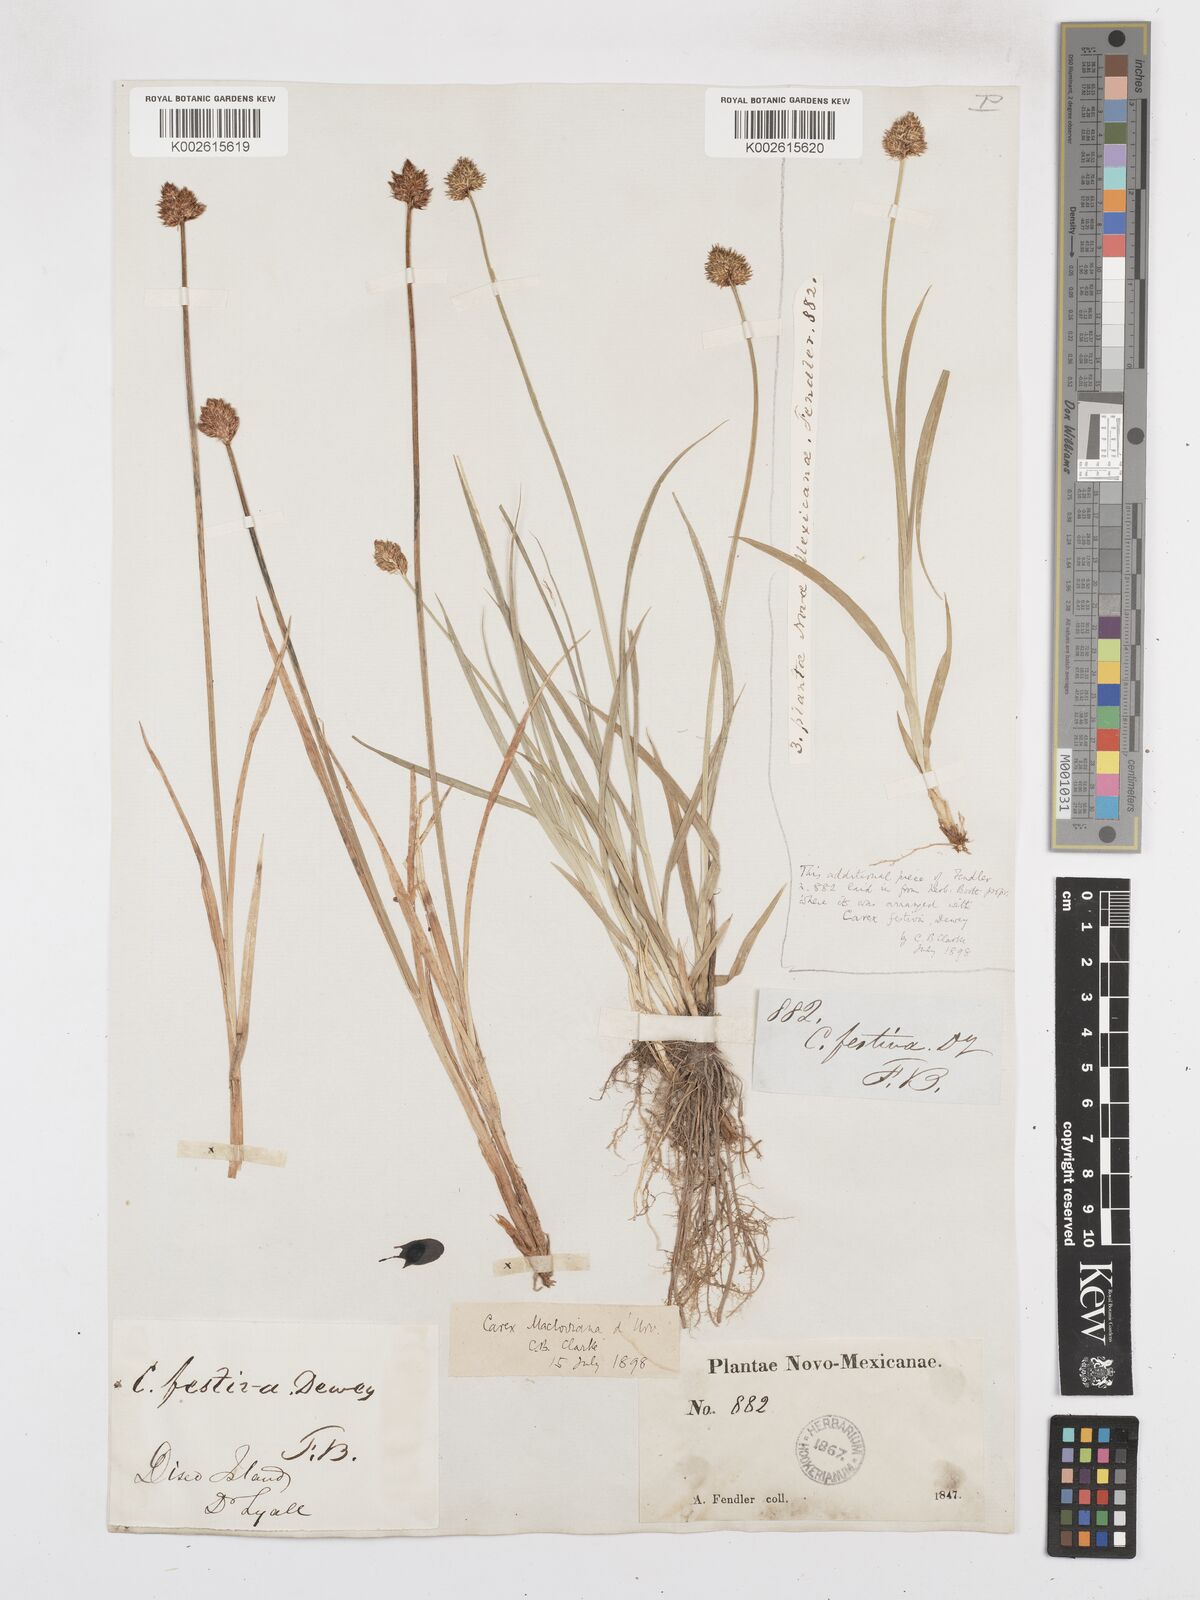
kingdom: Plantae
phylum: Tracheophyta
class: Liliopsida
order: Poales
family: Cyperaceae
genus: Carex
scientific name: Carex harfordii
